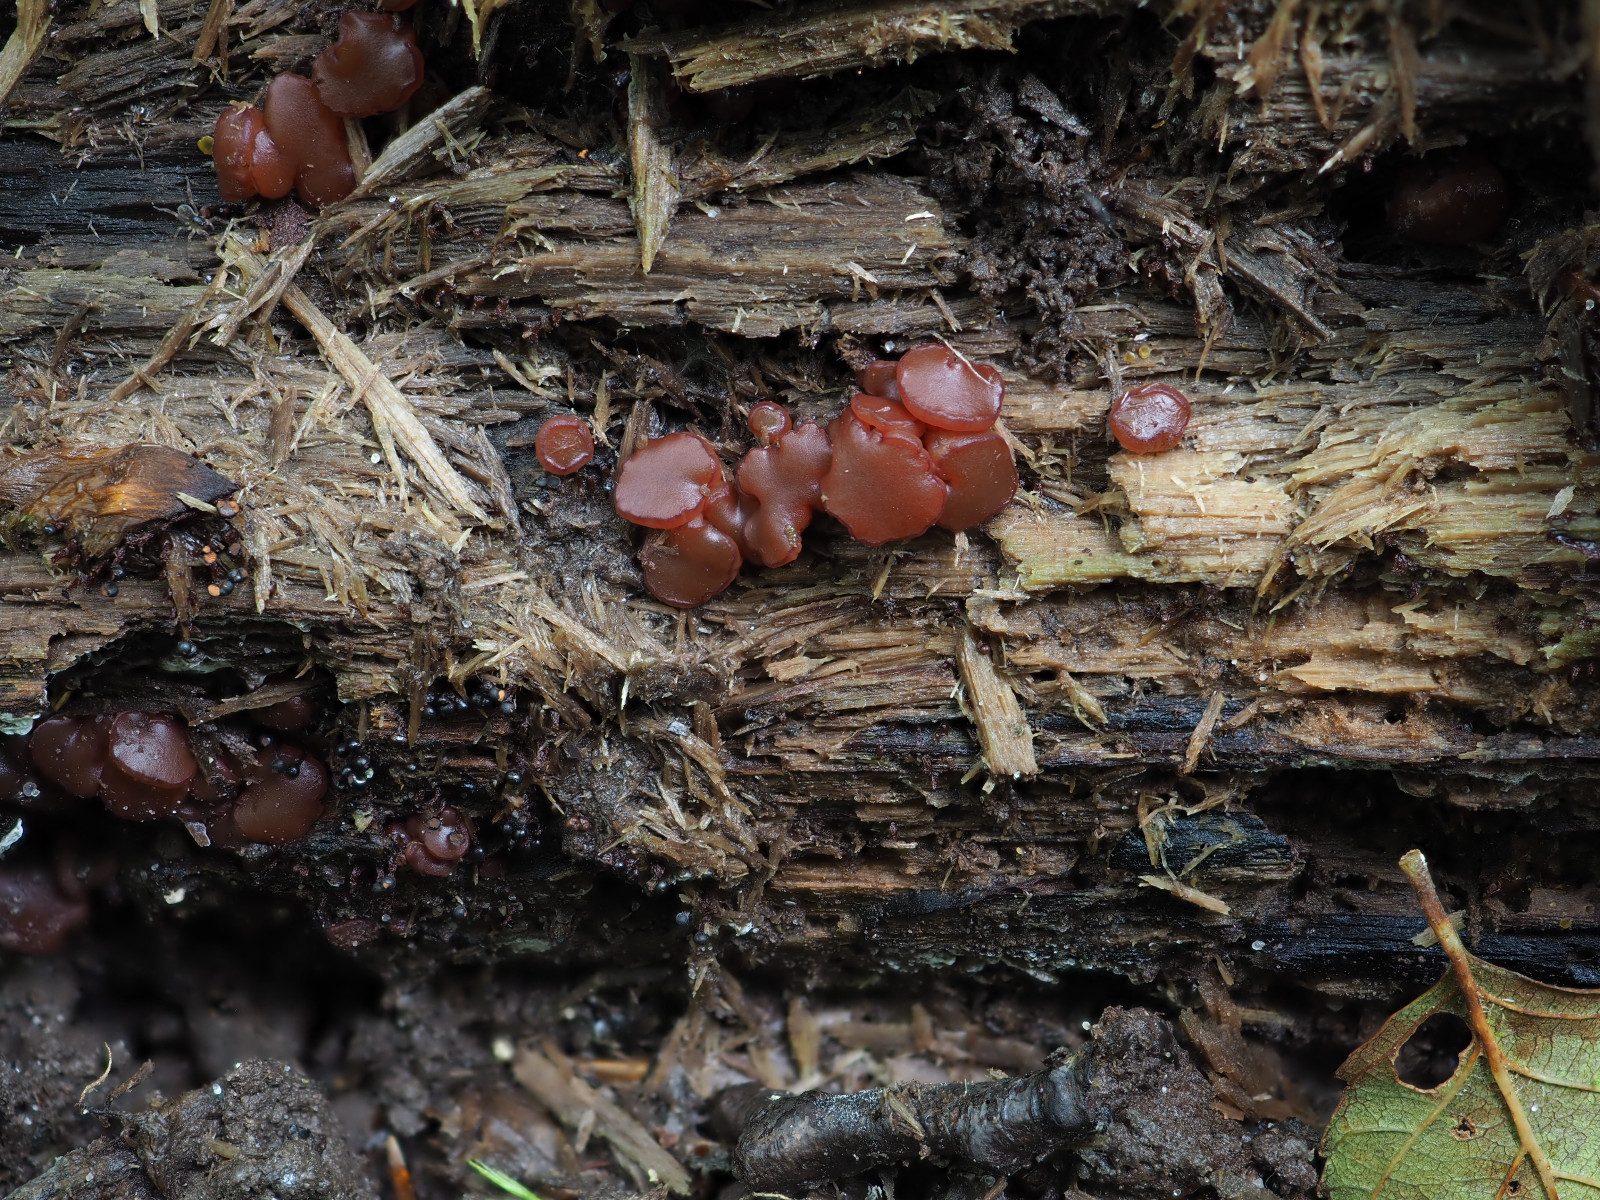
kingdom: Fungi
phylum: Ascomycota
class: Leotiomycetes
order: Helotiales
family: Gelatinodiscaceae
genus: Ascocoryne
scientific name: Ascocoryne inflata
